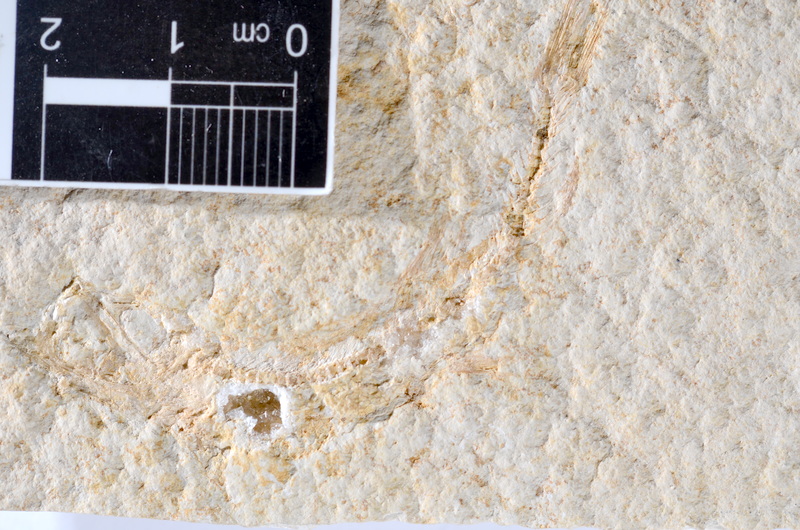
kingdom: Animalia
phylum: Chordata
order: Salmoniformes
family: Orthogonikleithridae
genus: Leptolepides
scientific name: Leptolepides sprattiformis
